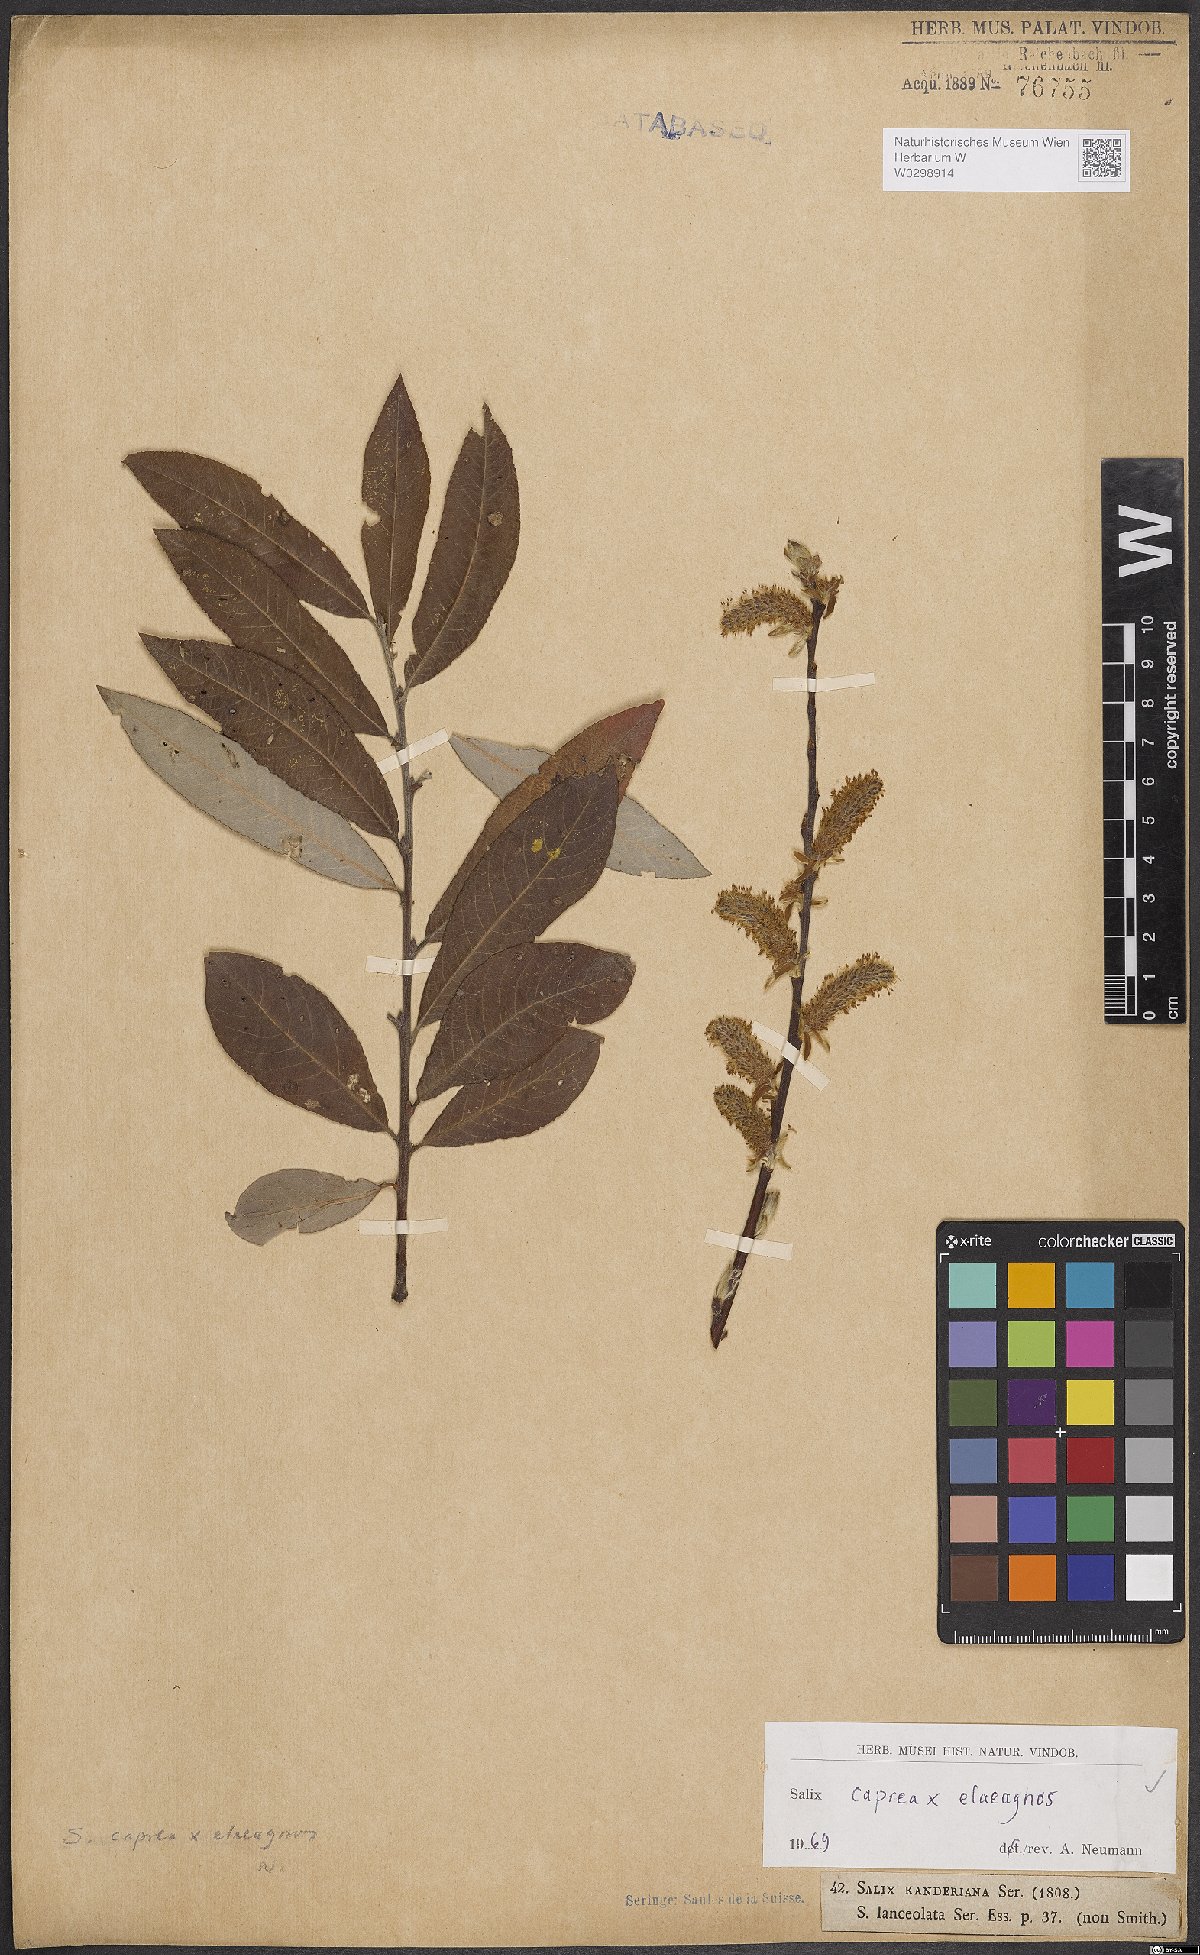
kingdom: Plantae
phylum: Tracheophyta
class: Magnoliopsida
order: Malpighiales
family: Salicaceae
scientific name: Salicaceae
